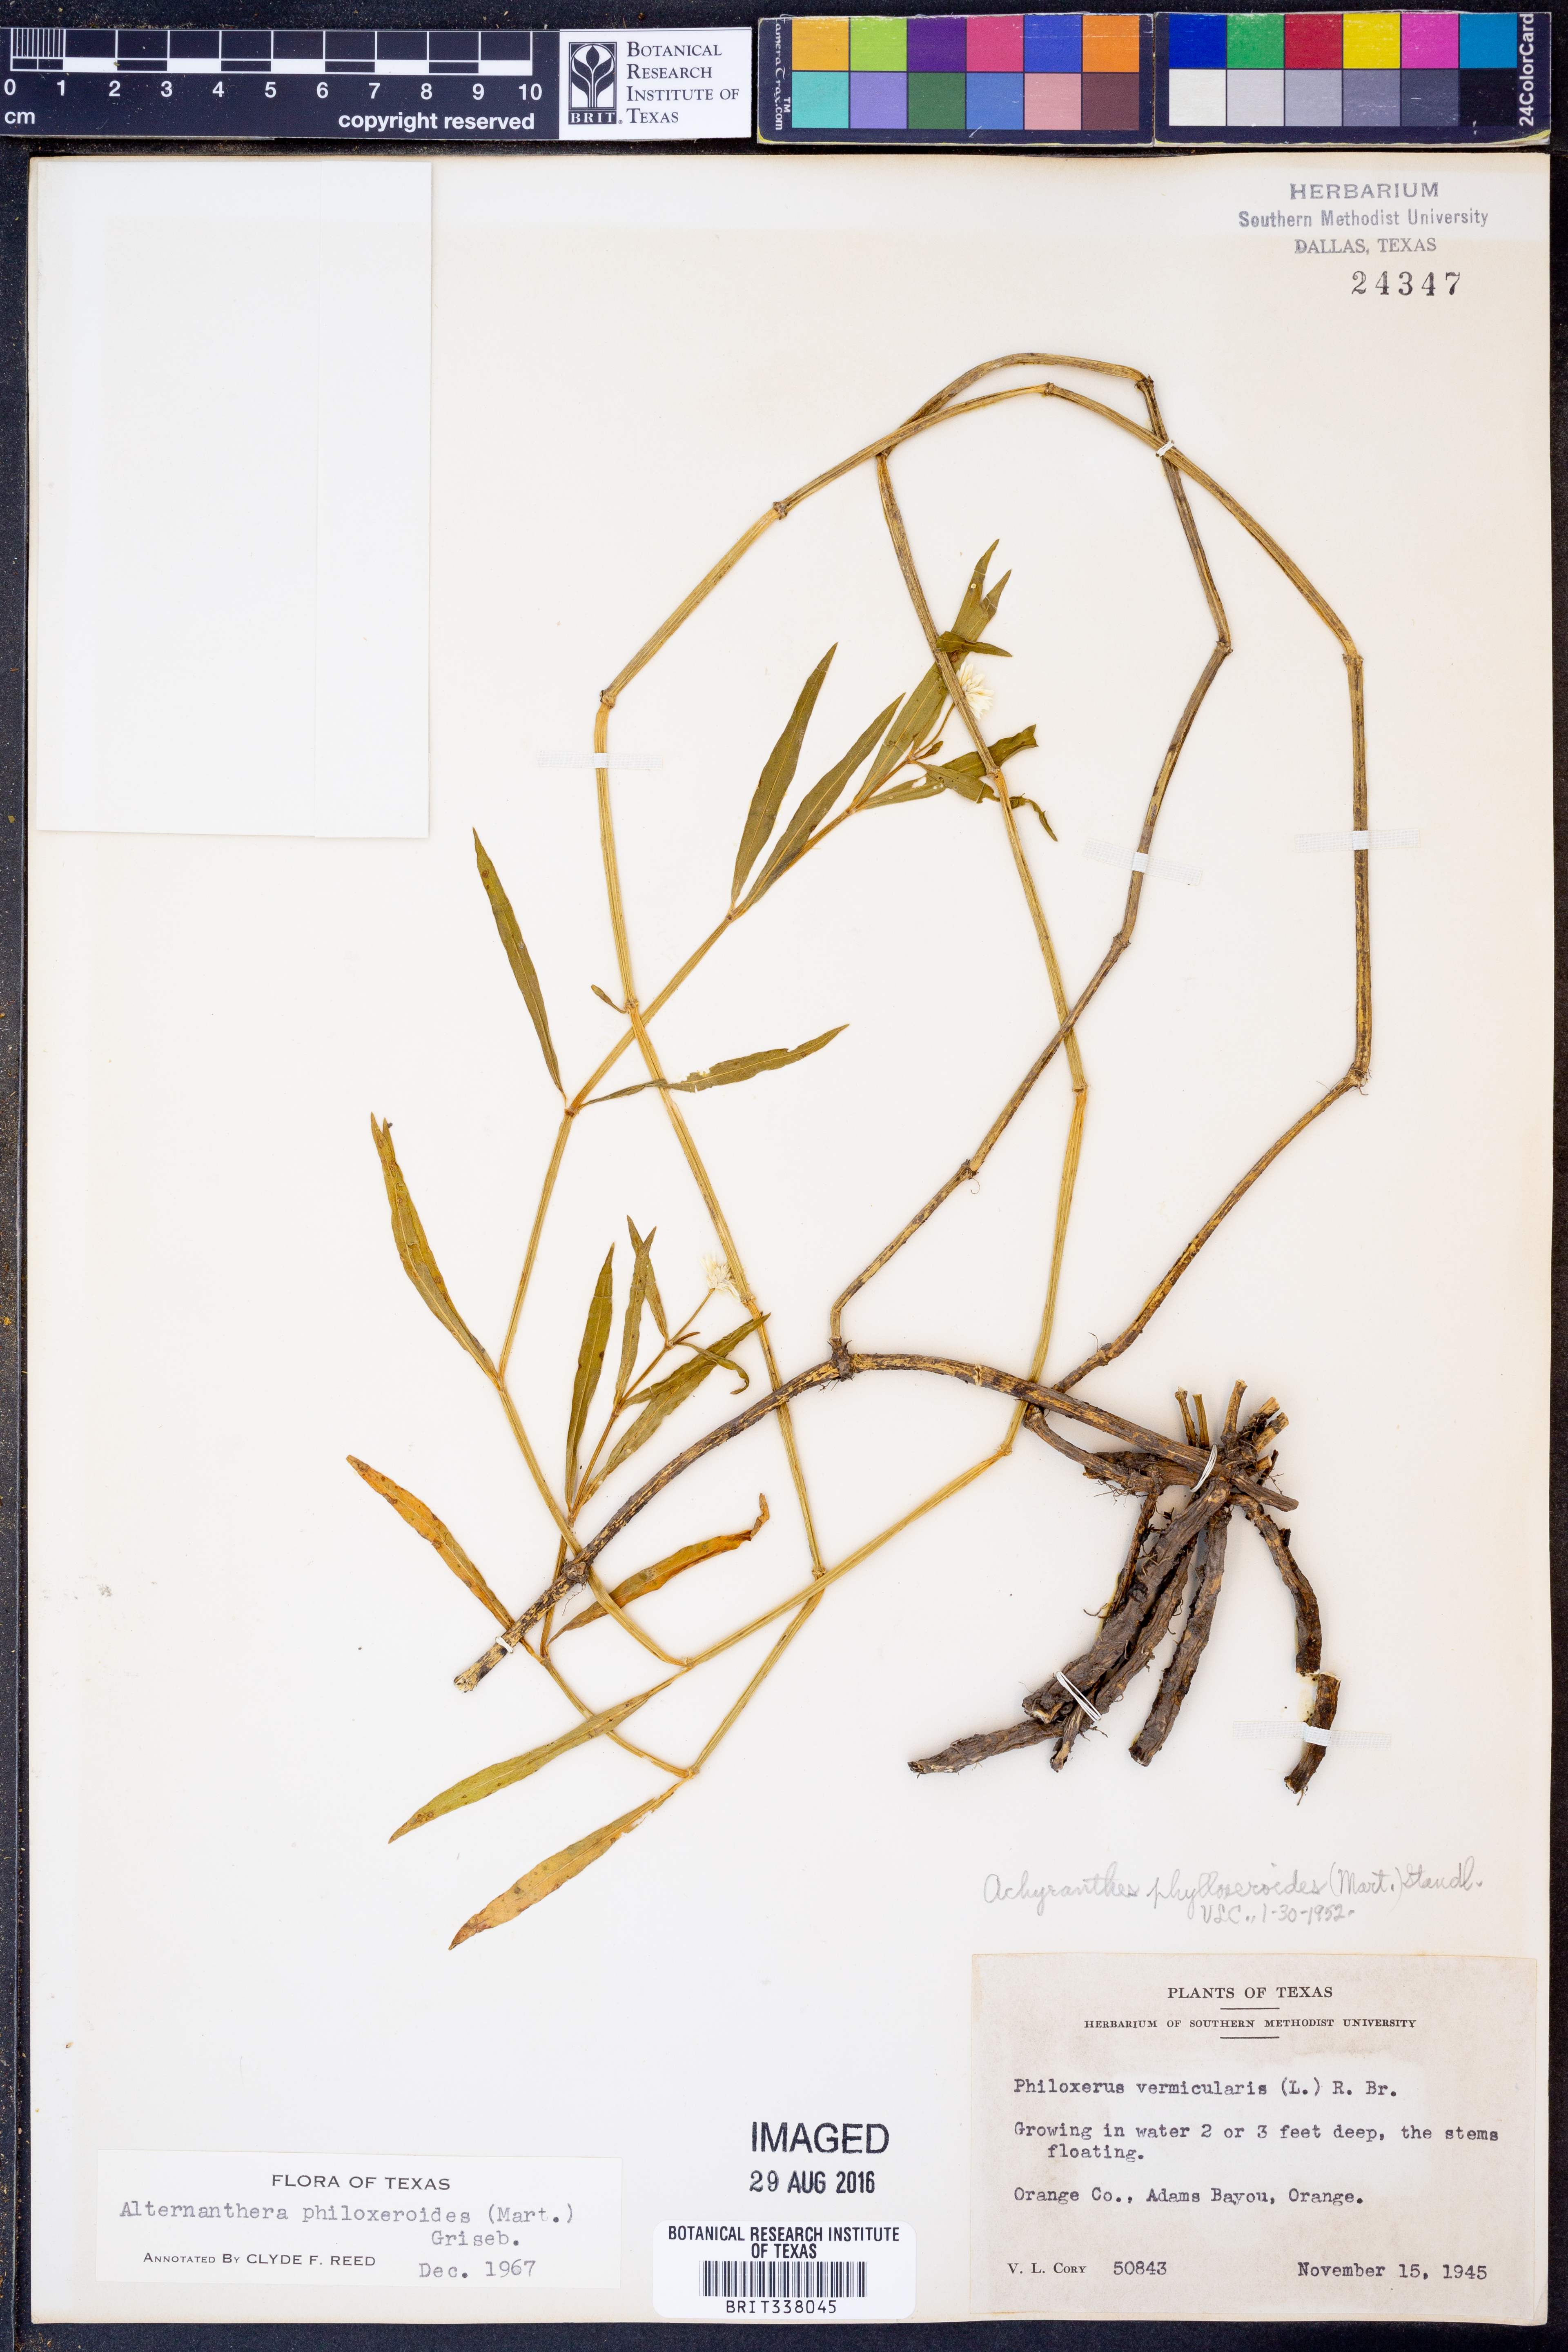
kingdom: Plantae
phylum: Tracheophyta
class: Magnoliopsida
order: Caryophyllales
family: Amaranthaceae
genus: Alternanthera
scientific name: Alternanthera philoxeroides
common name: Alligatorweed
